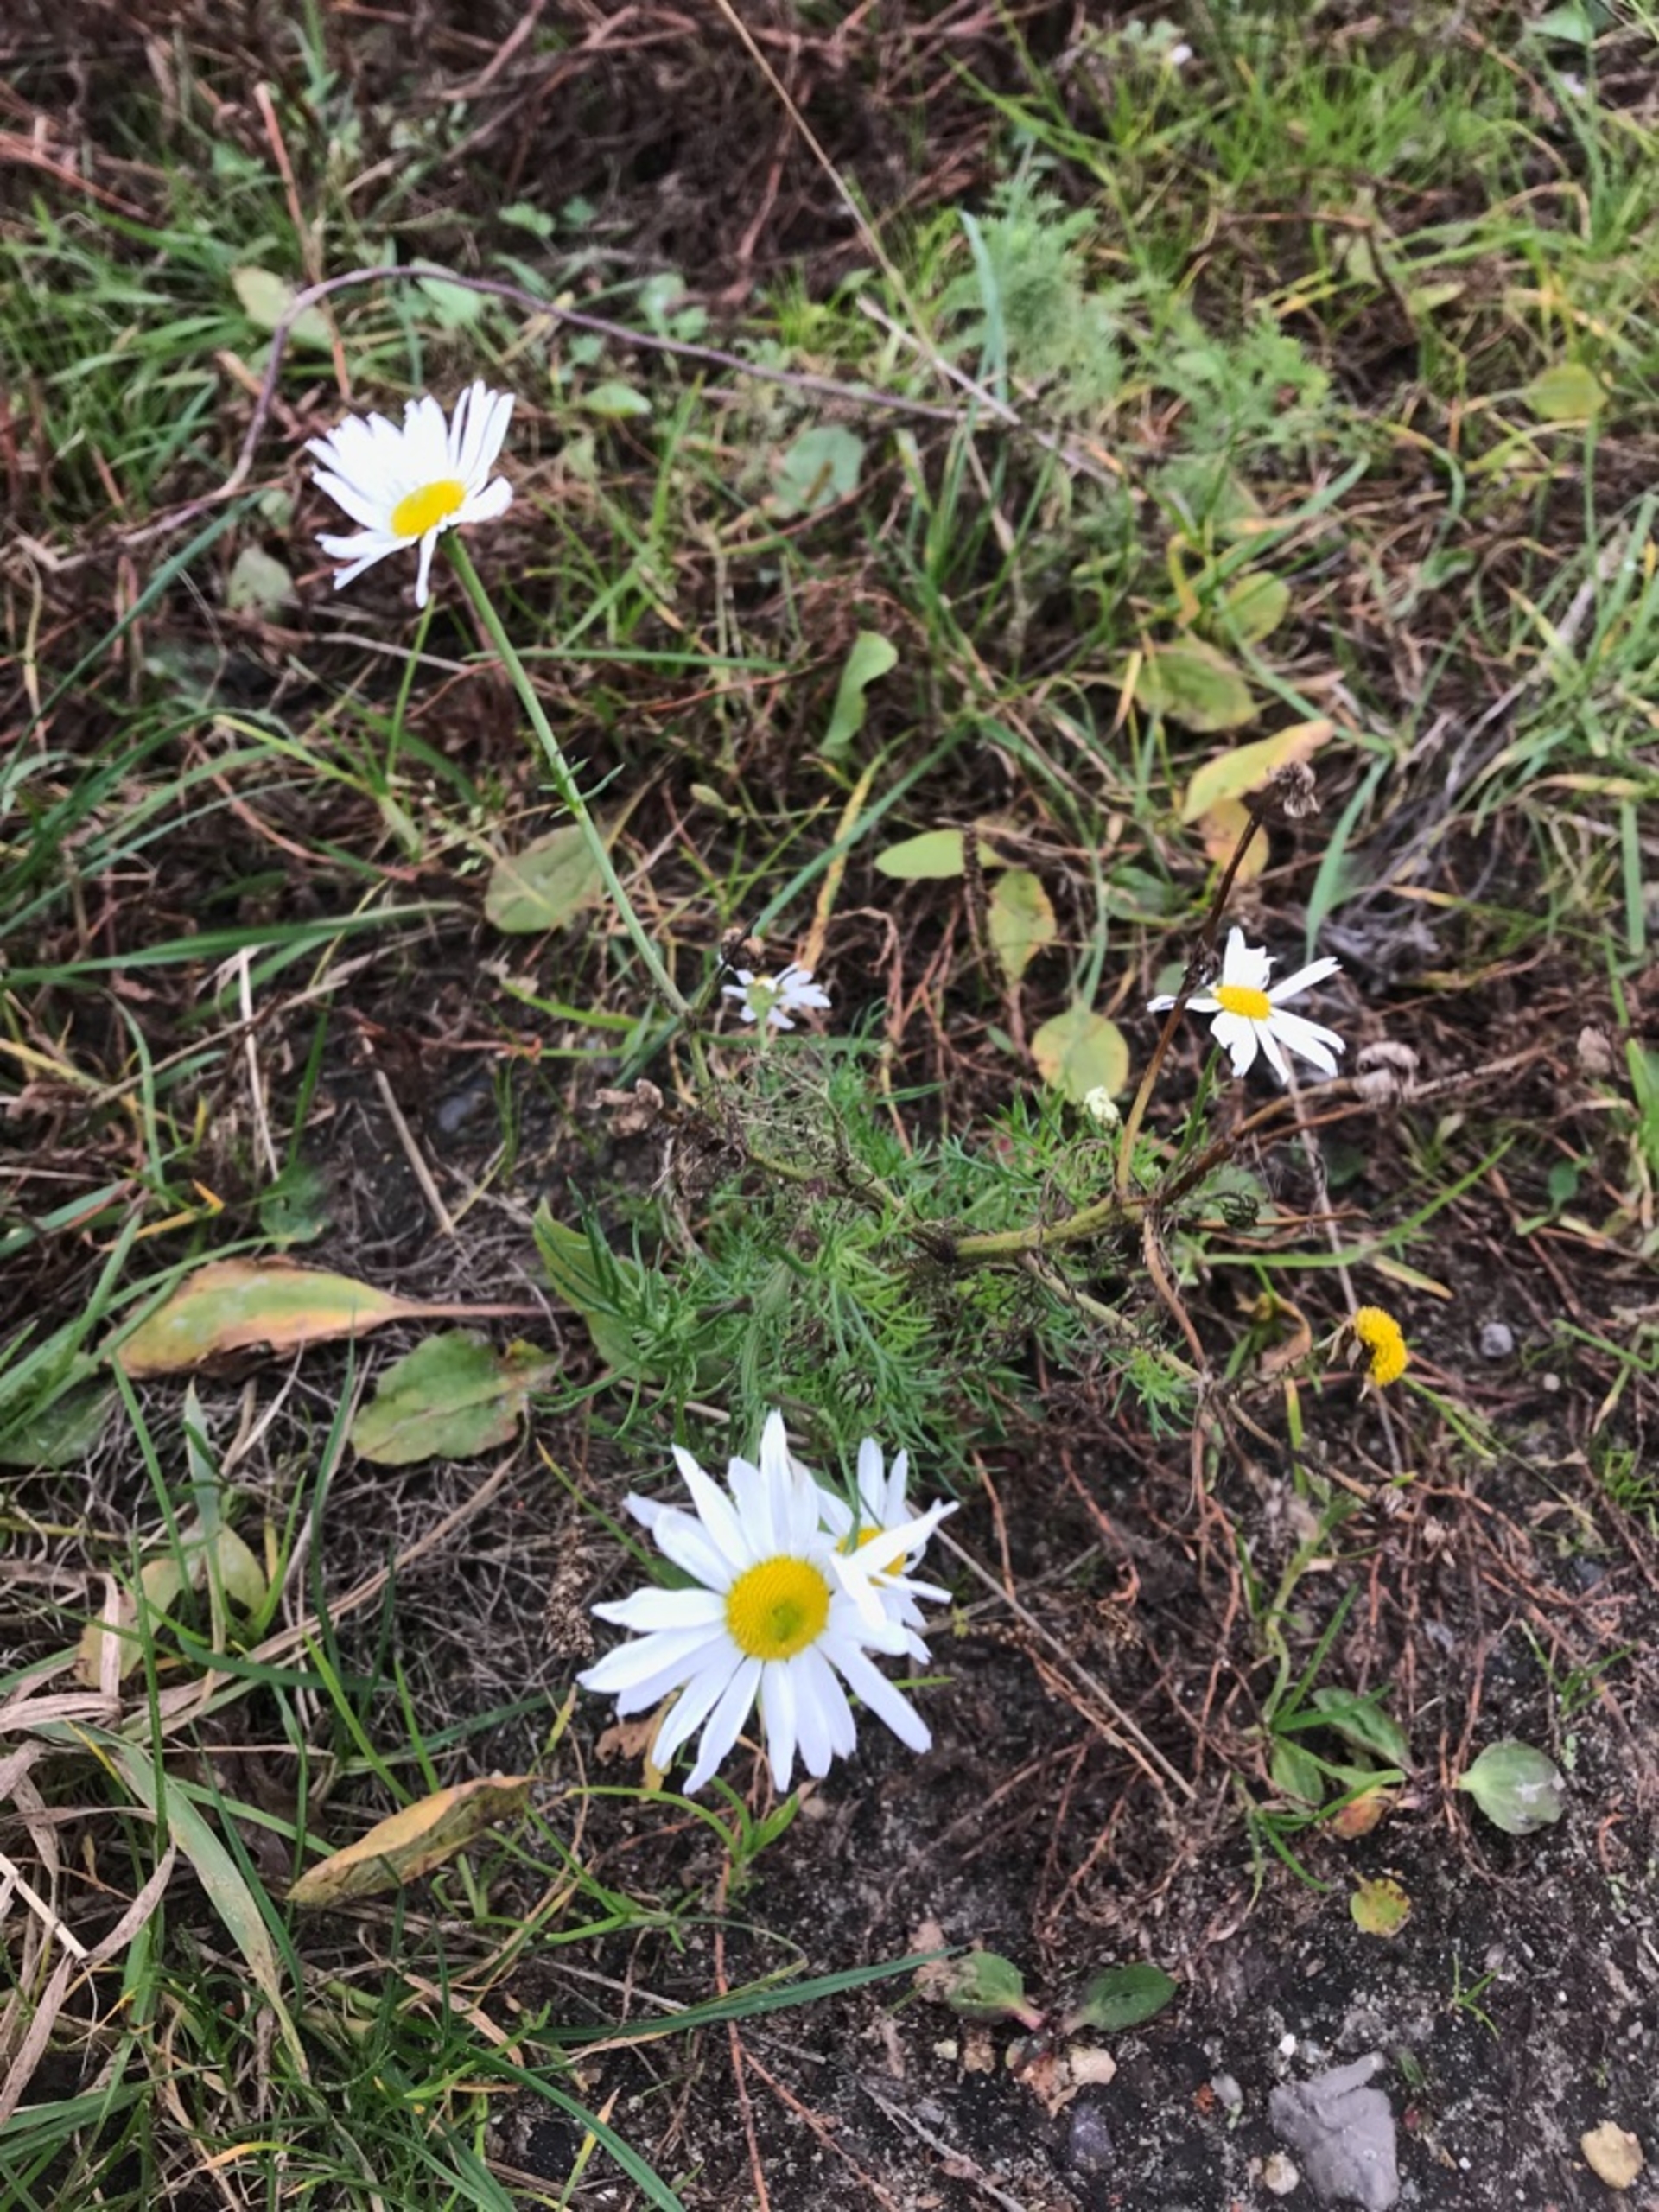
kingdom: Plantae
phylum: Tracheophyta
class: Magnoliopsida
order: Asterales
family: Asteraceae
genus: Tripleurospermum
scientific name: Tripleurospermum inodorum
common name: Lugtløs kamille
